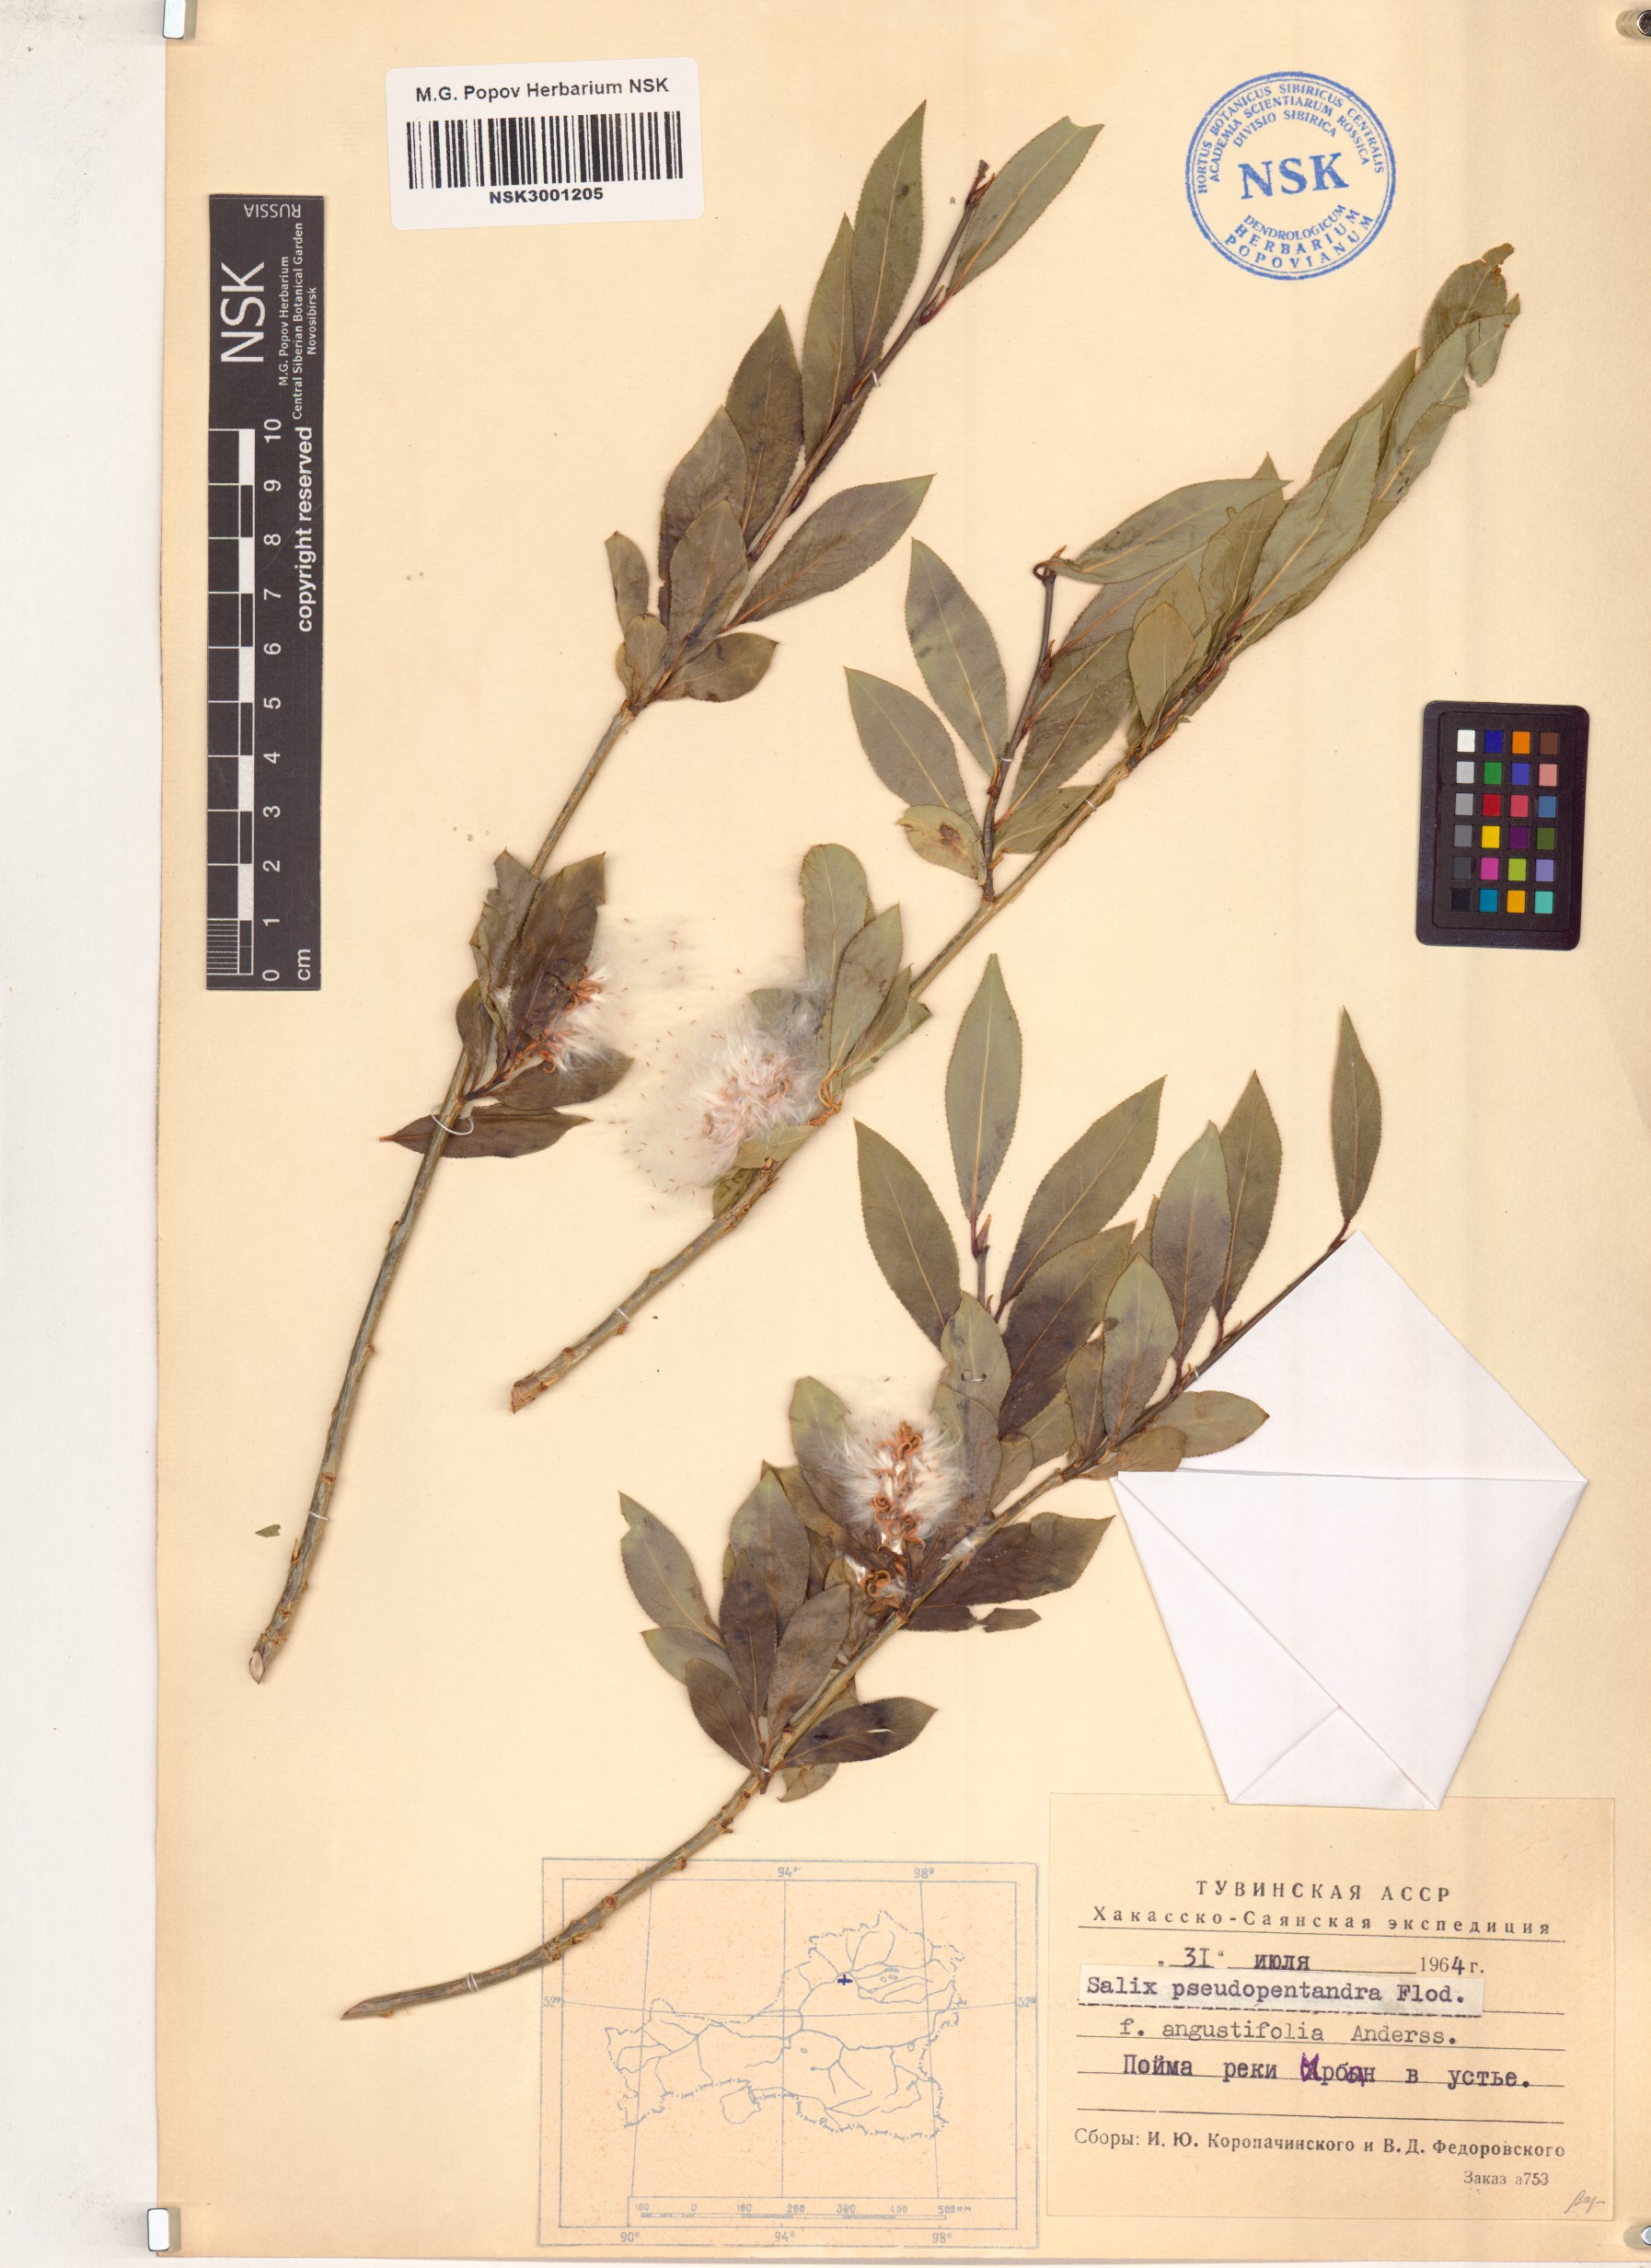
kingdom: Plantae
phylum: Tracheophyta
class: Magnoliopsida
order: Malpighiales
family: Salicaceae
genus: Salix
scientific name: Salix pseudopentandra
